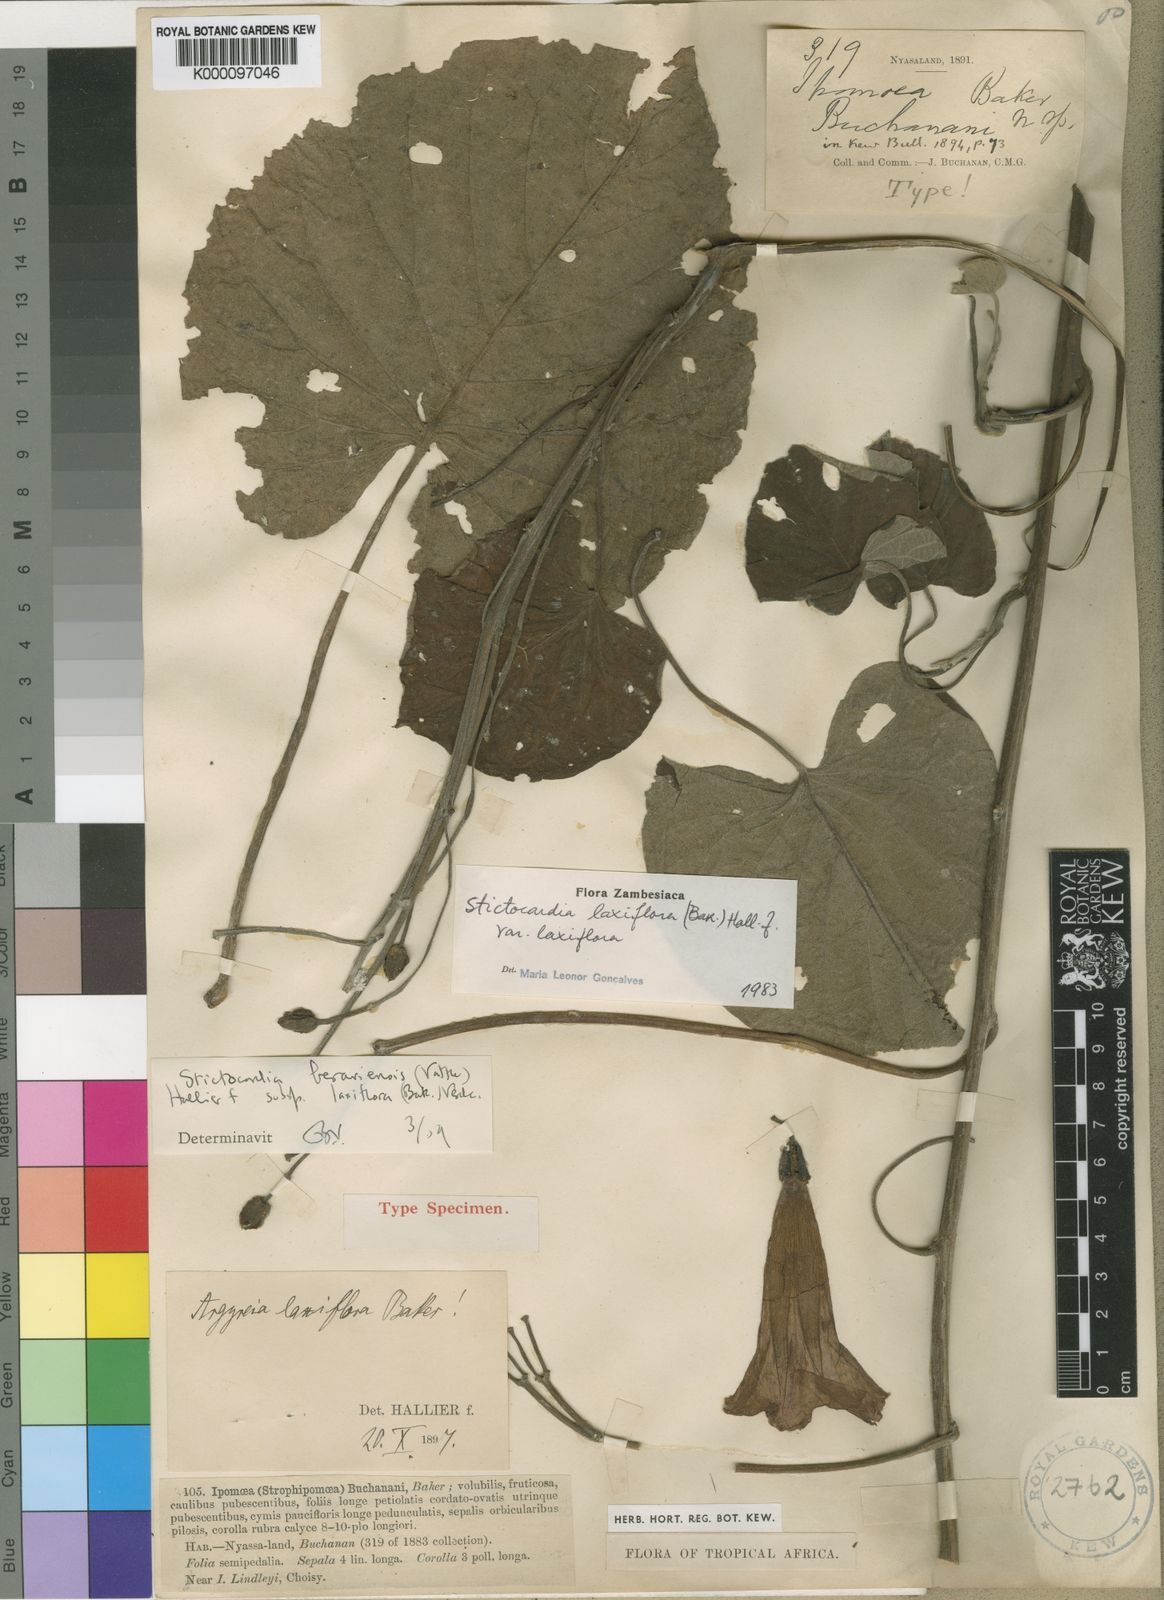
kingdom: Plantae
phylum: Tracheophyta
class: Magnoliopsida
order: Solanales
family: Convolvulaceae
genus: Stictocardia
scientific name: Stictocardia laxiflora
